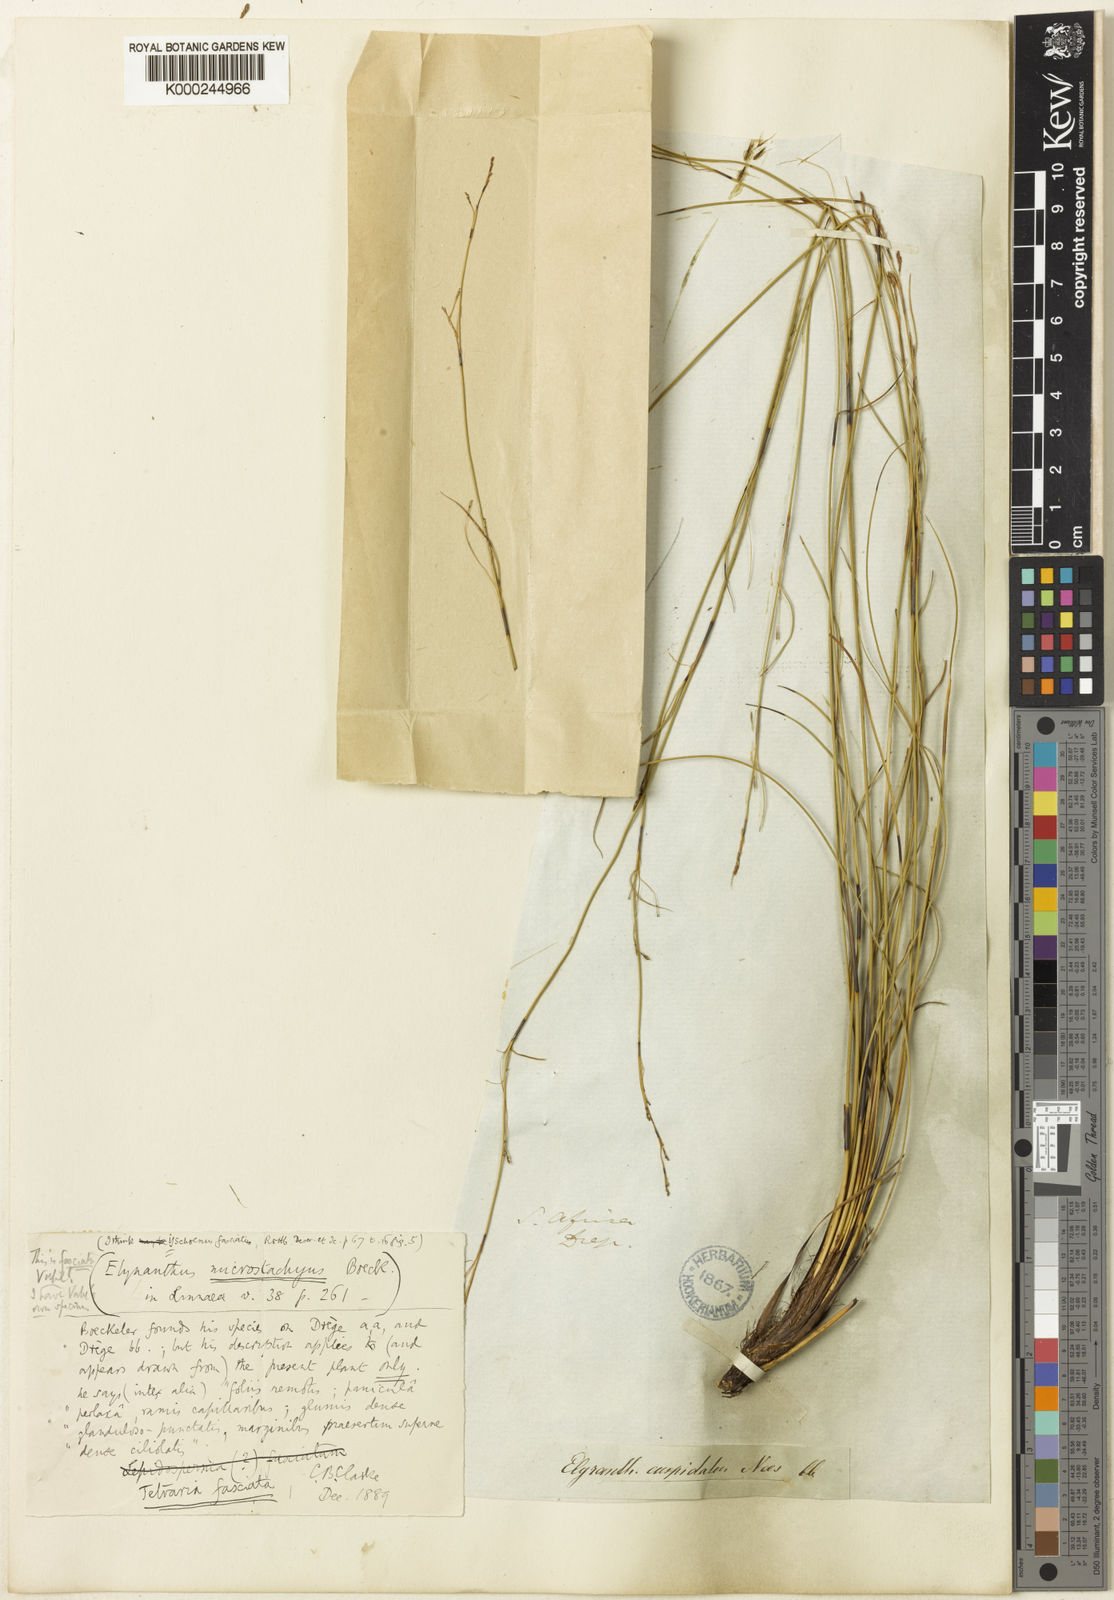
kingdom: Plantae
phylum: Tracheophyta
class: Liliopsida
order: Poales
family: Cyperaceae
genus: Tetraria
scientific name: Tetraria fasciata
